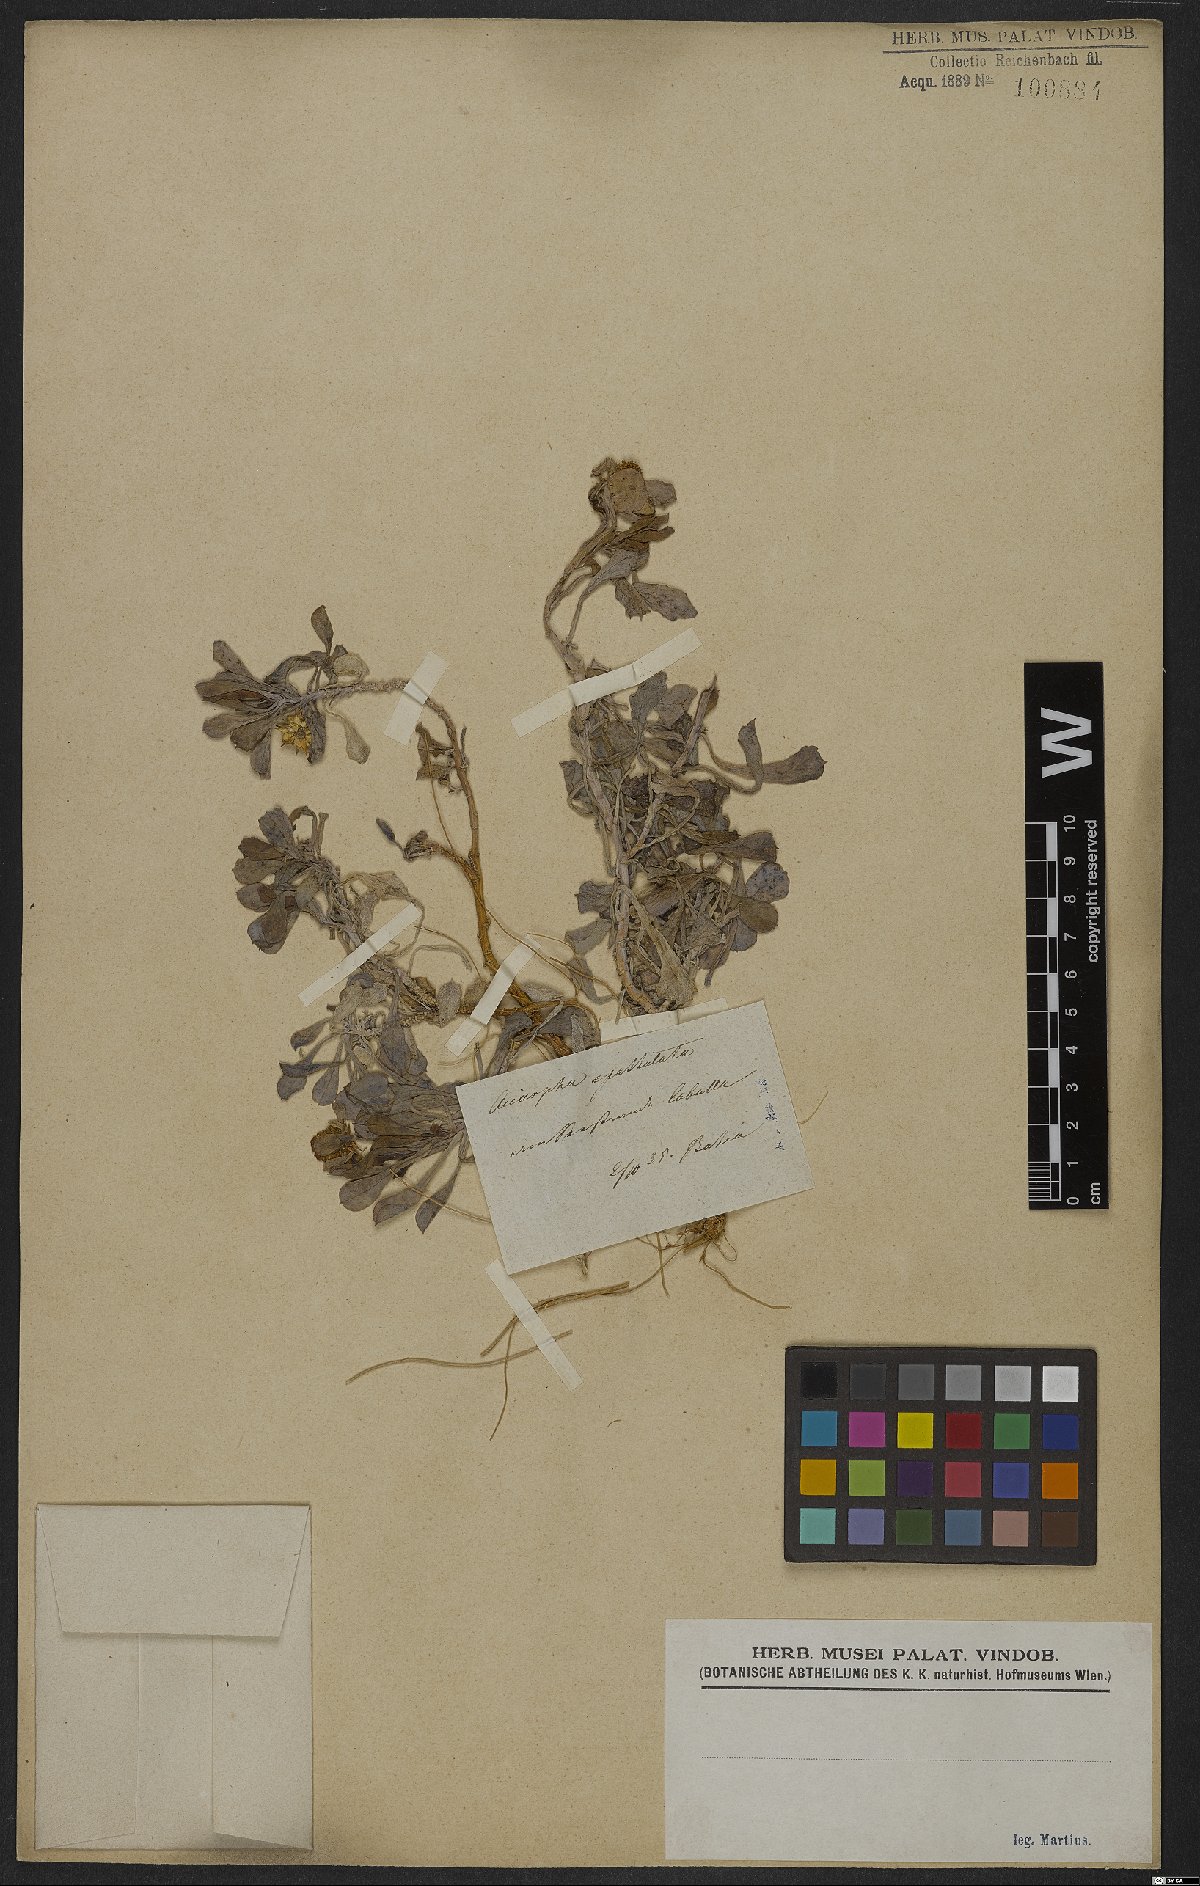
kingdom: Plantae
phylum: Tracheophyta
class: Magnoliopsida
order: Asterales
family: Calyceraceae
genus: Acicarpha
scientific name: Acicarpha spathulata
